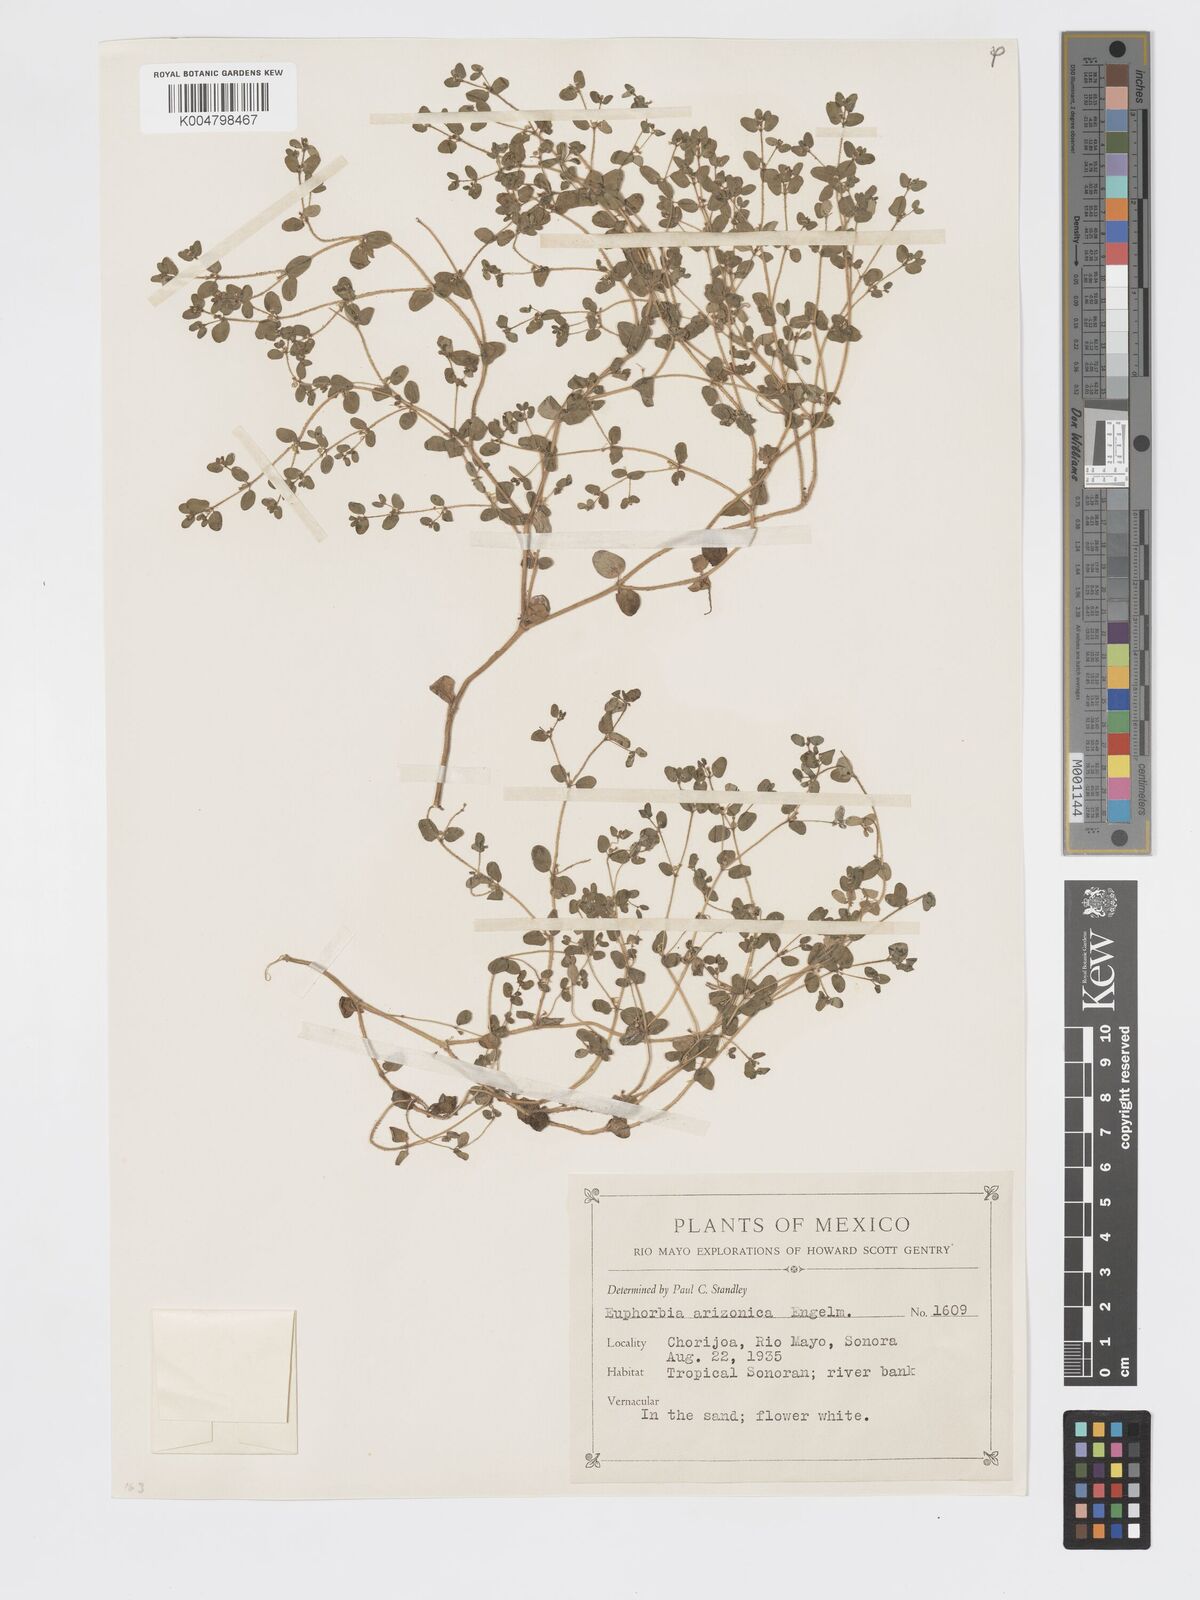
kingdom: Plantae
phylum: Tracheophyta
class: Magnoliopsida
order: Malpighiales
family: Euphorbiaceae
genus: Euphorbia
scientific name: Euphorbia arizonica
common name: Arizona spurge
